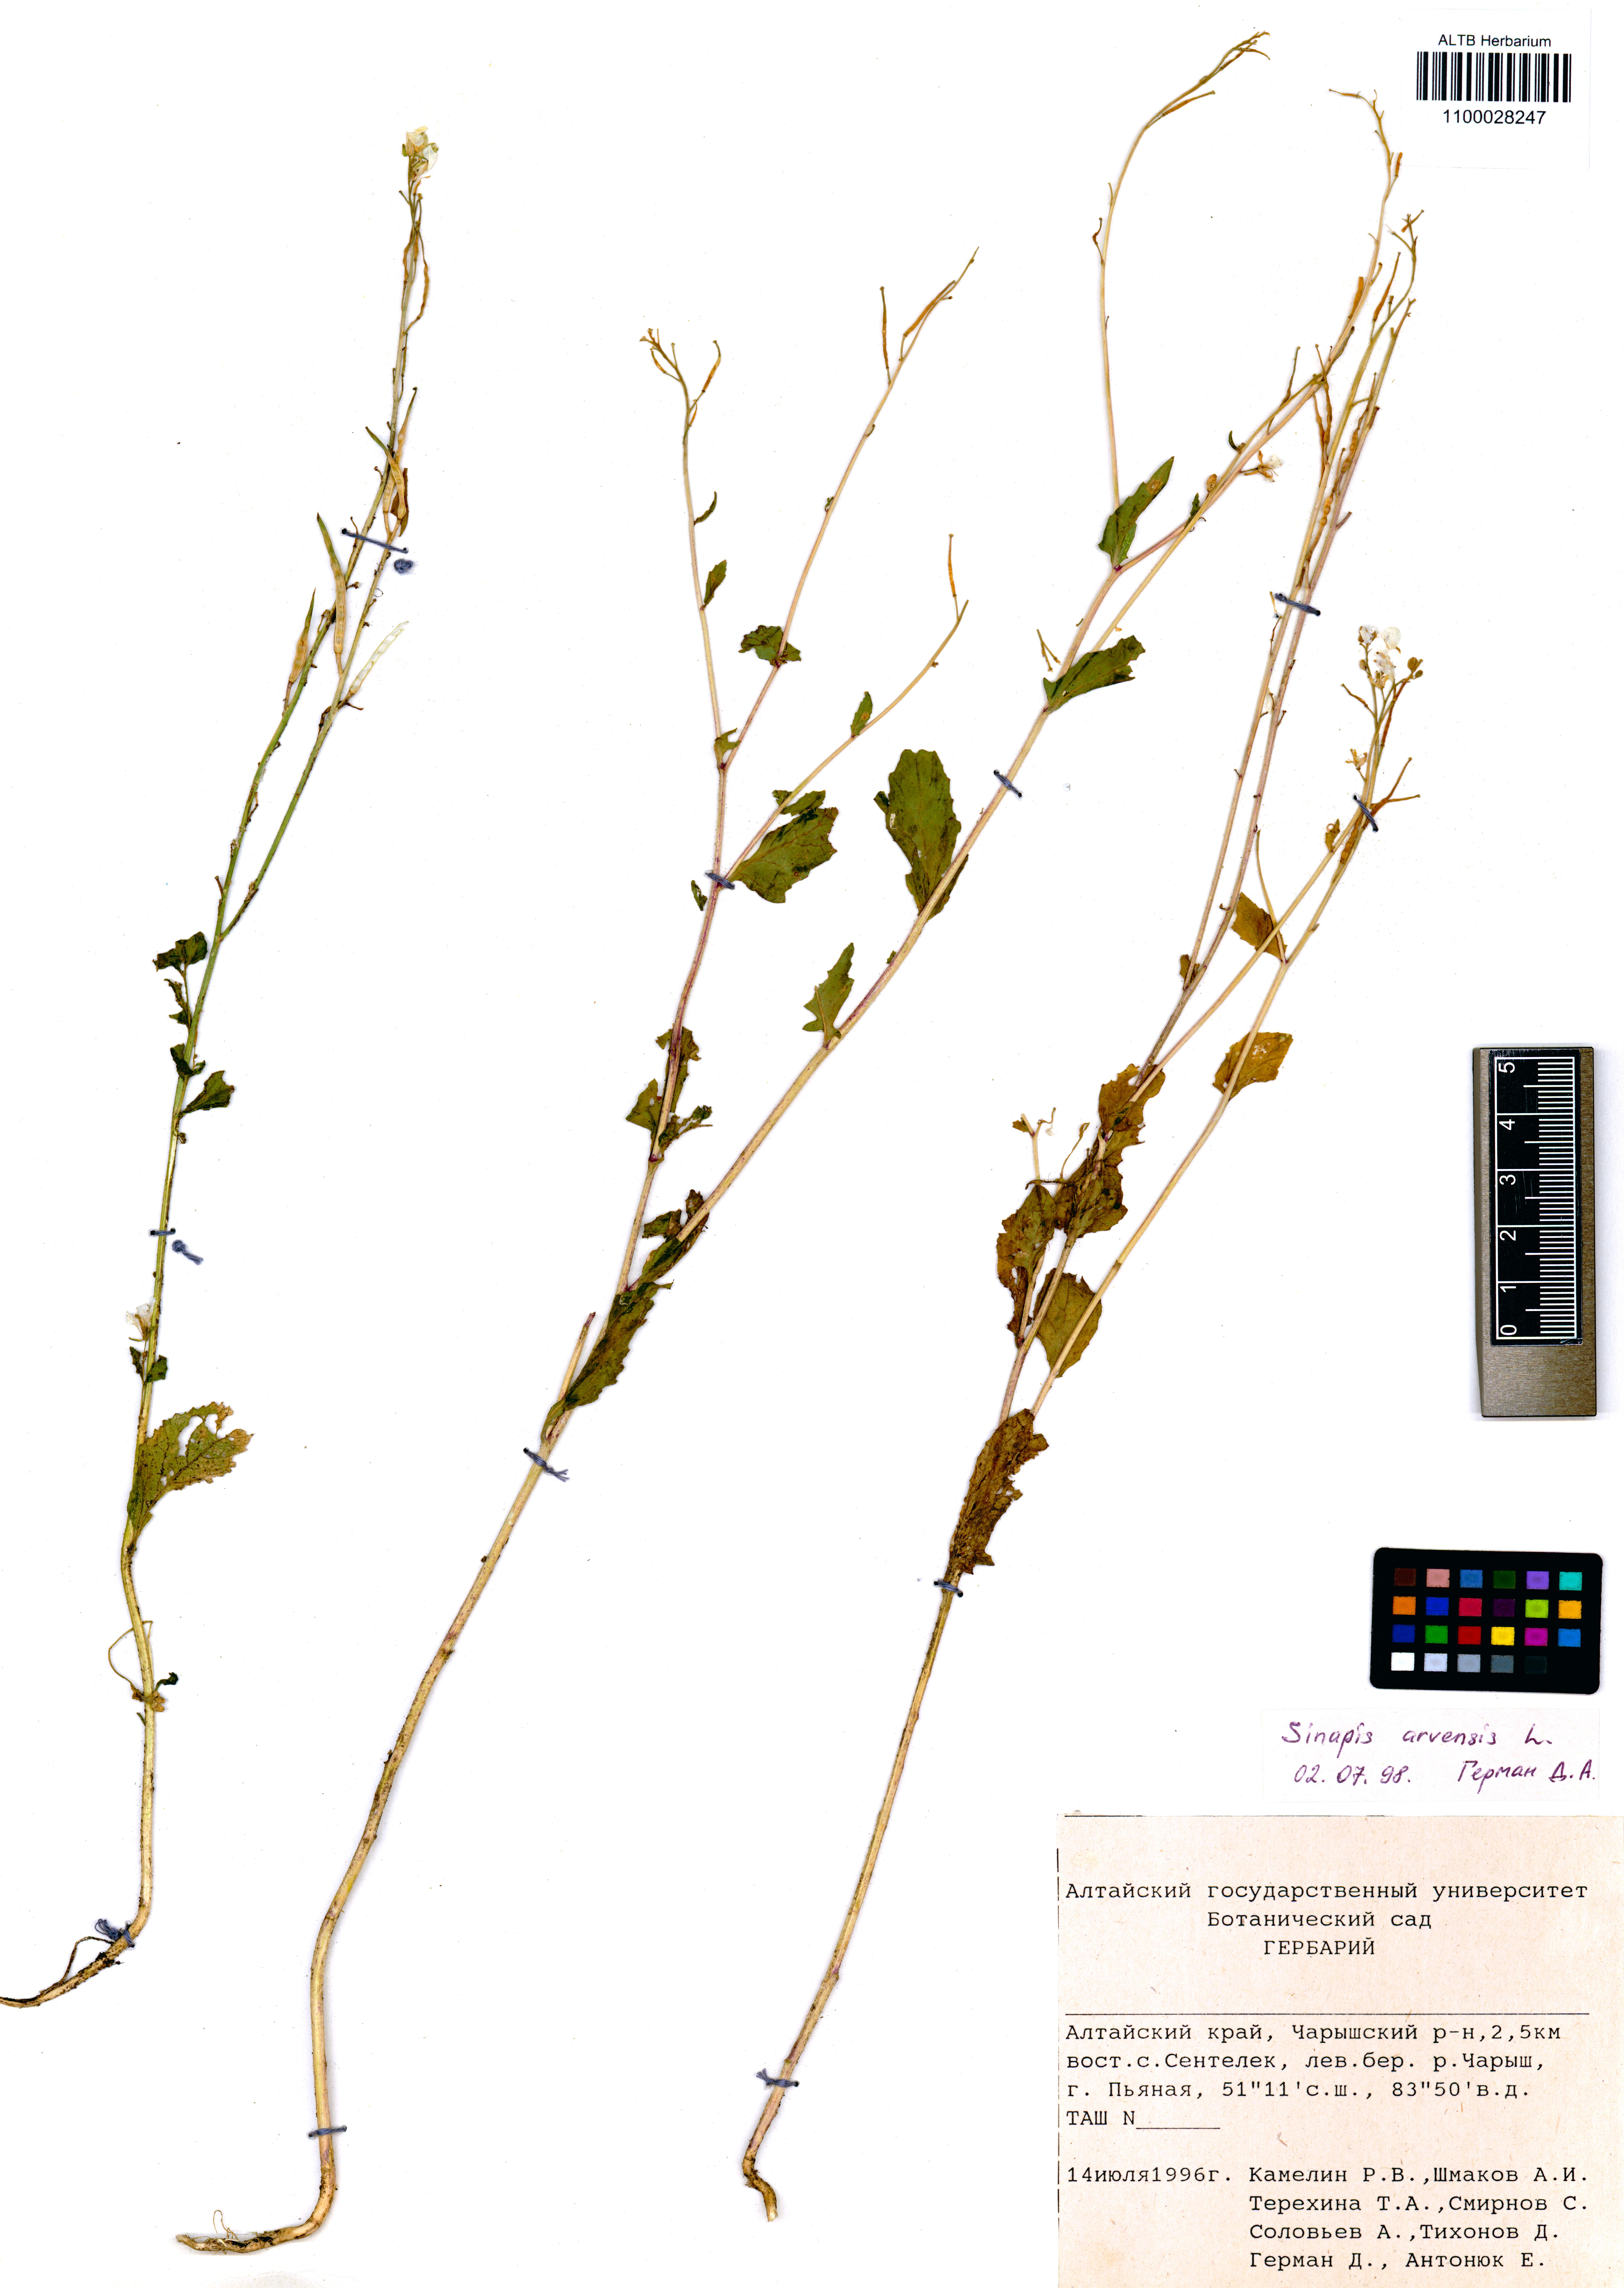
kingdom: Plantae
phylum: Tracheophyta
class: Magnoliopsida
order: Brassicales
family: Brassicaceae
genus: Sinapis
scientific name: Sinapis arvensis
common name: Charlock
